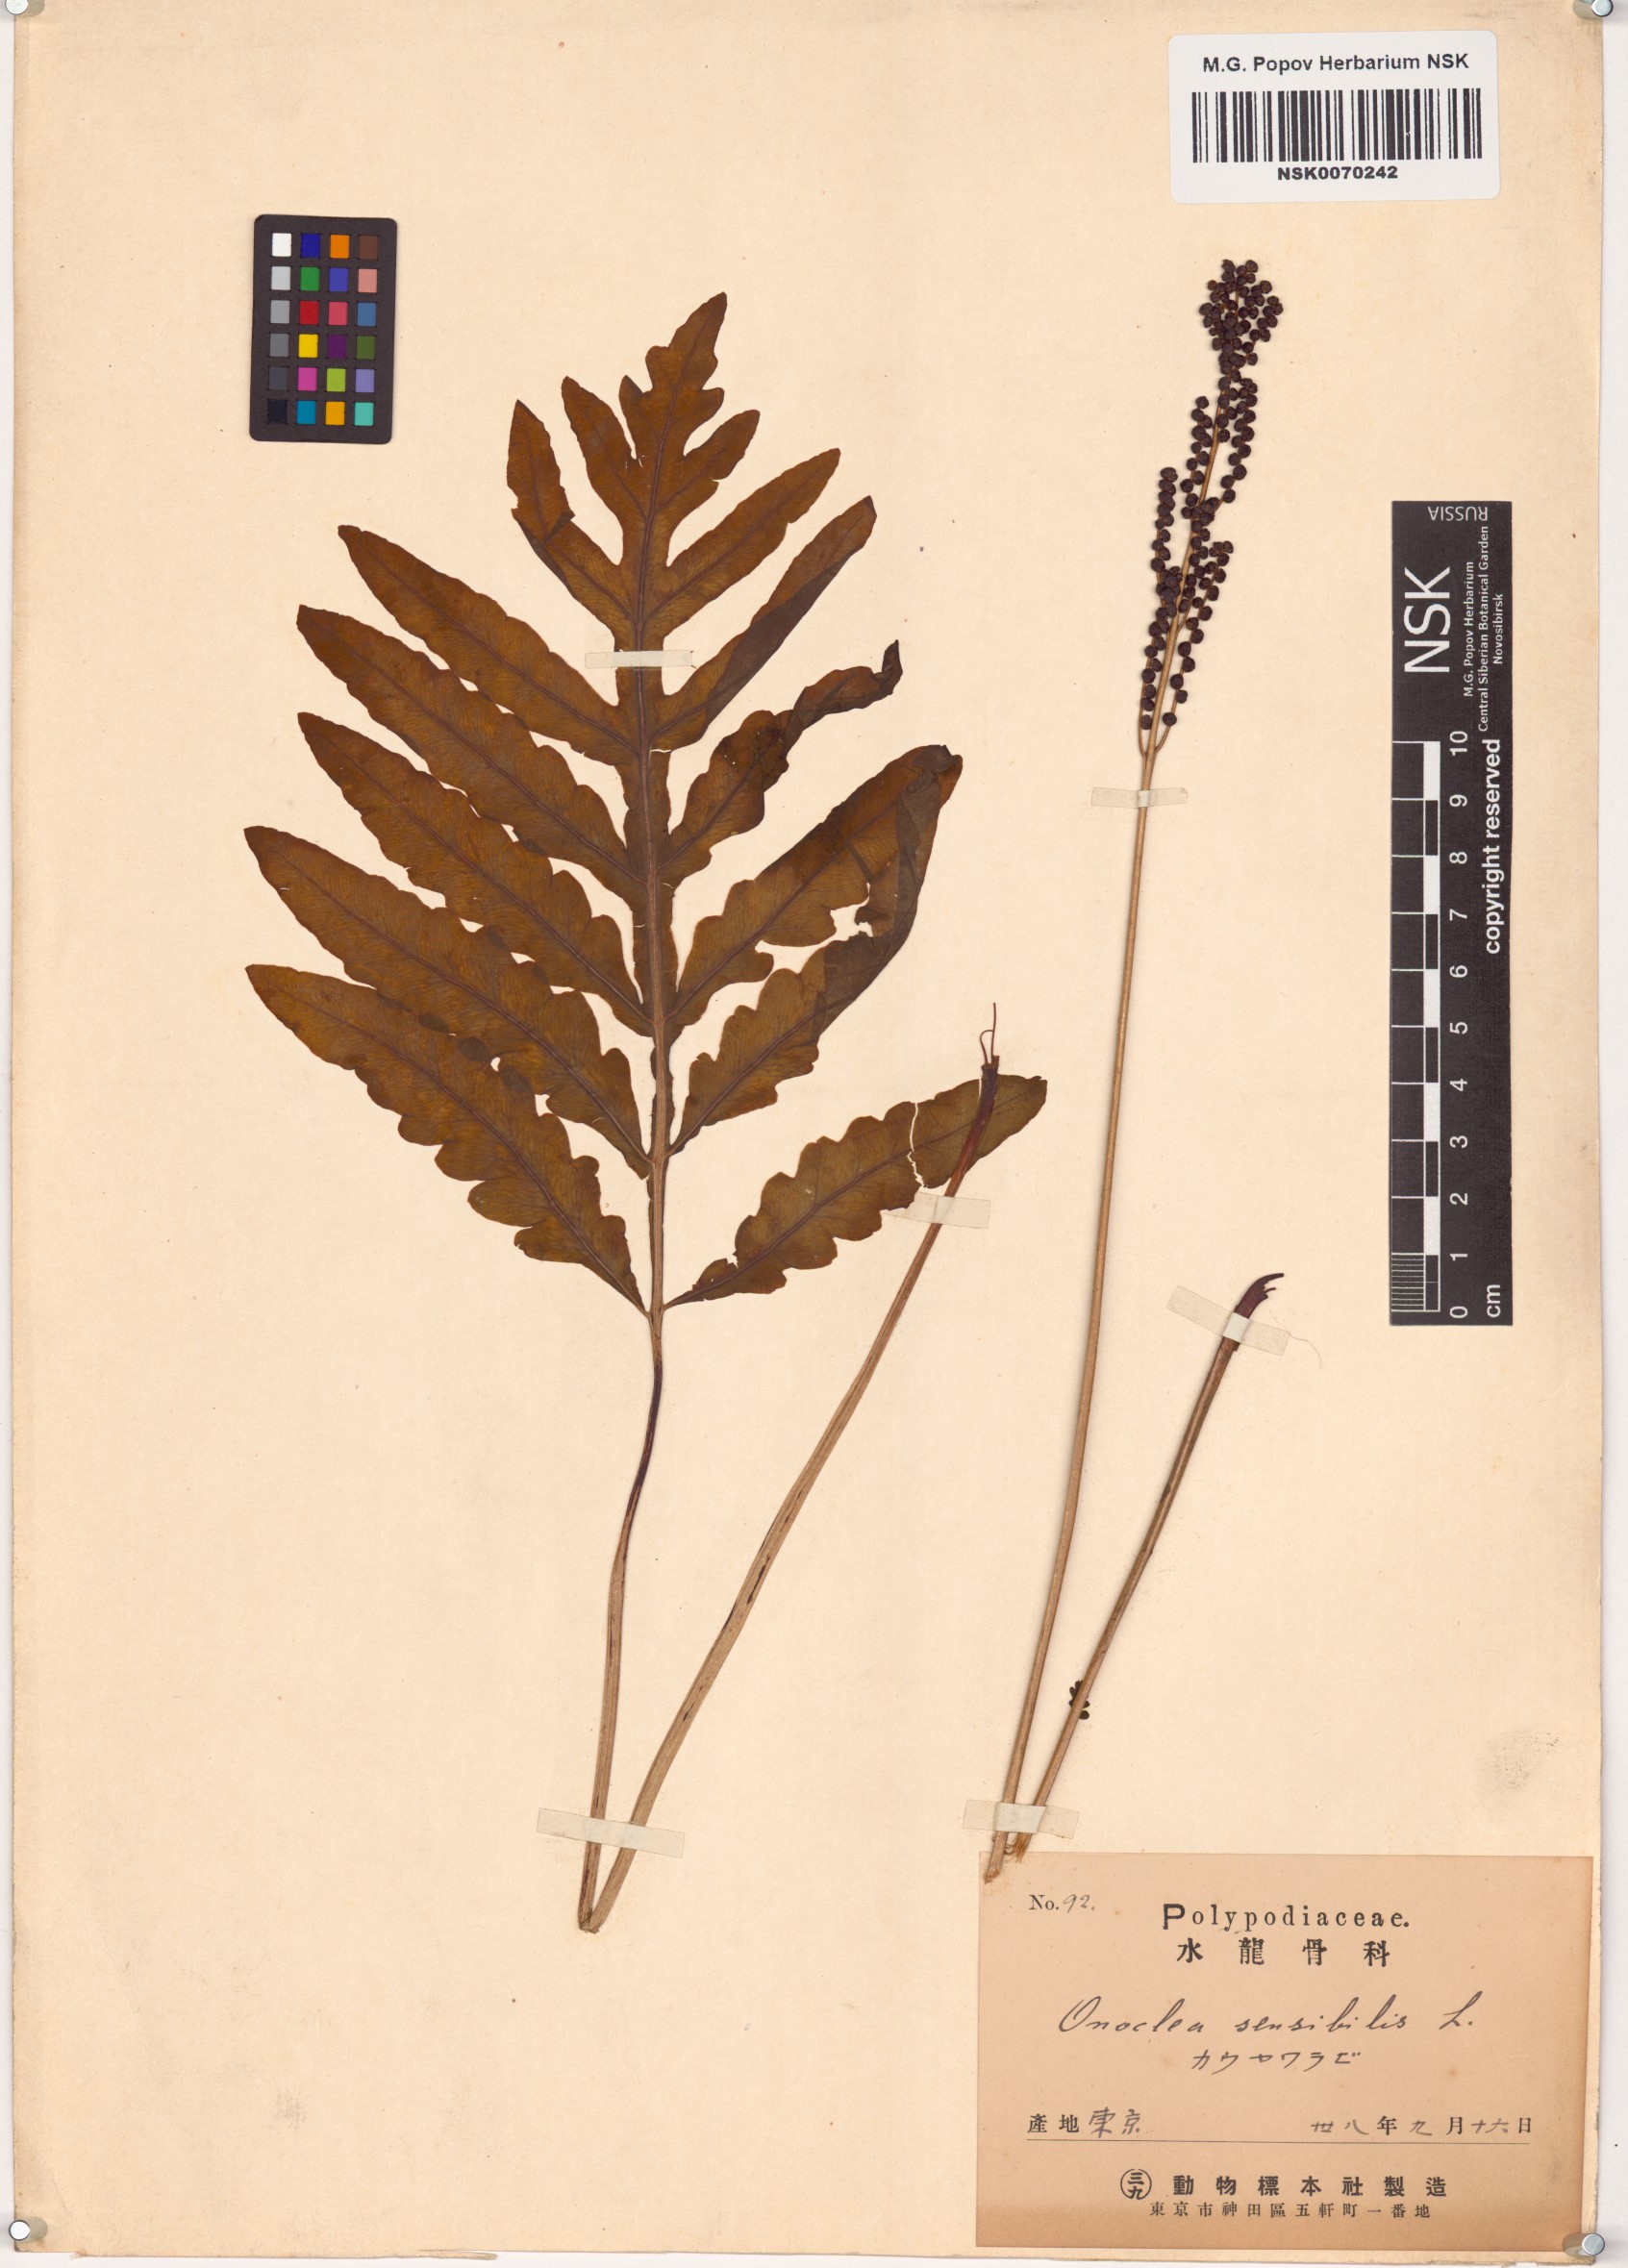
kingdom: Plantae
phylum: Tracheophyta
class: Polypodiopsida
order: Polypodiales
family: Onocleaceae
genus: Onoclea
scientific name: Onoclea sensibilis
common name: Sensitive fern
